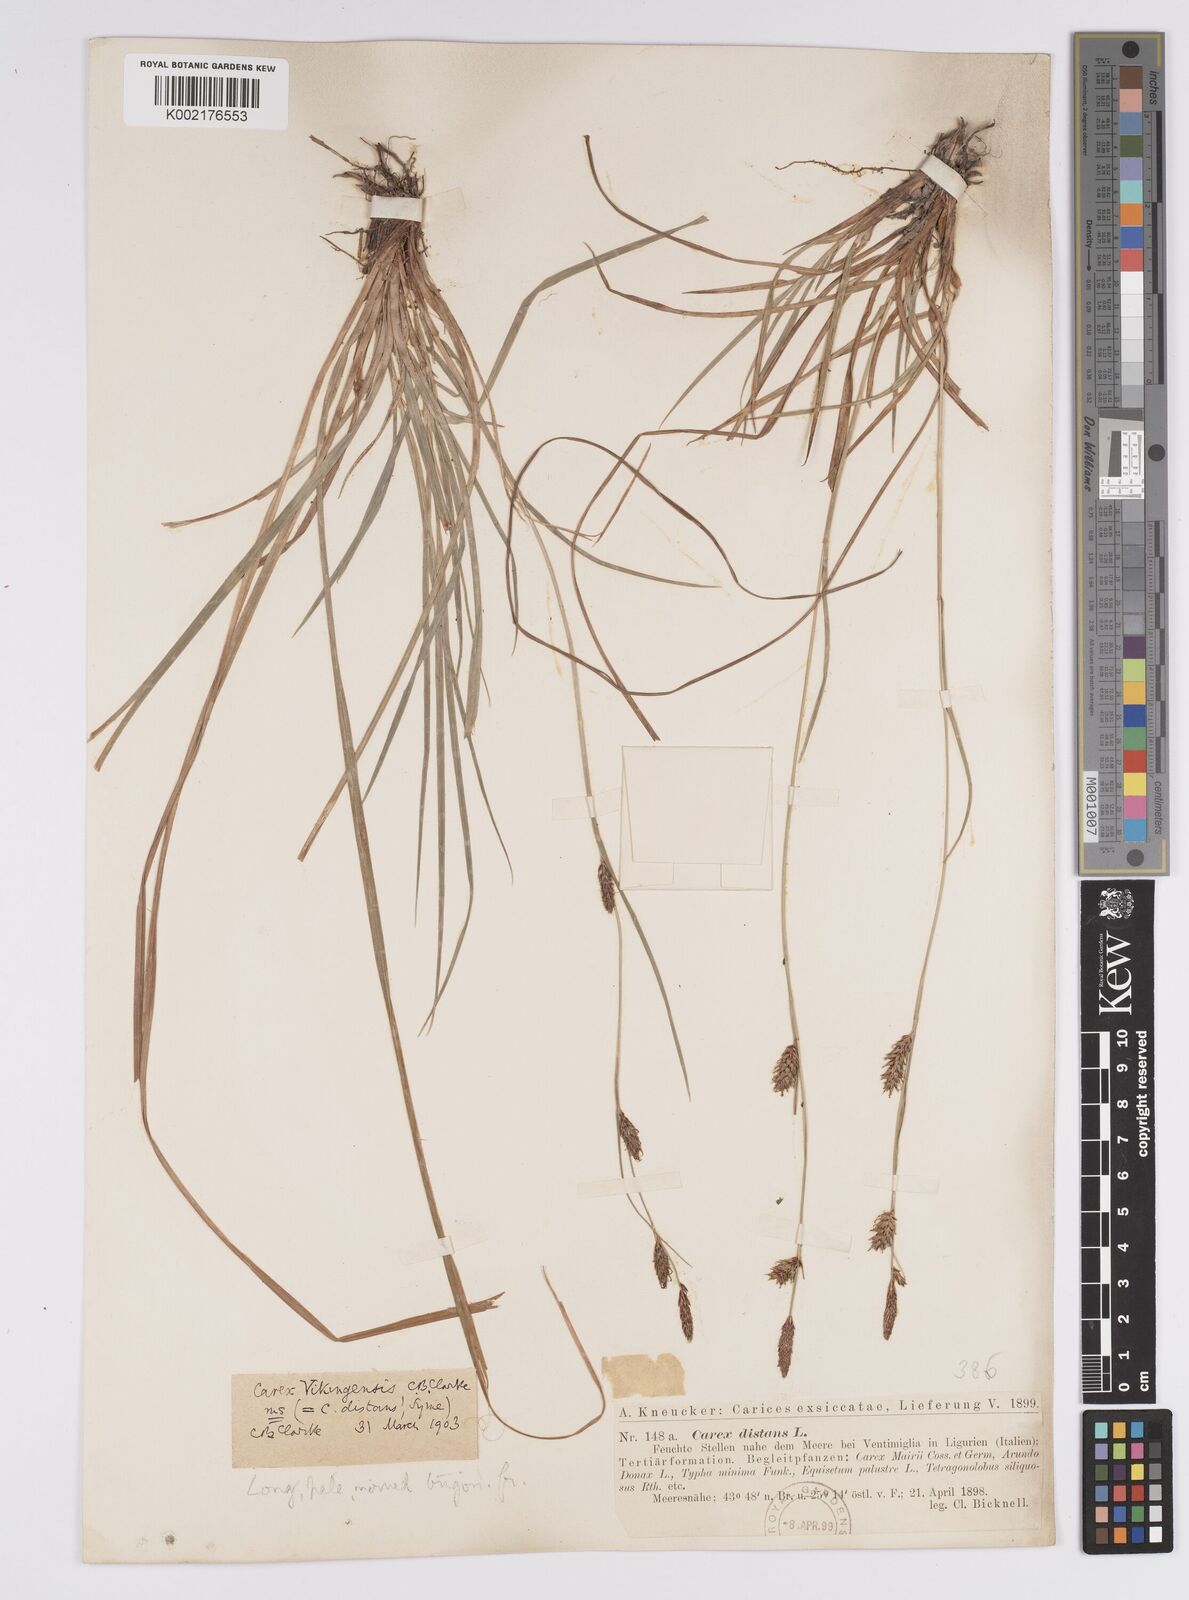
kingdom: Plantae
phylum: Tracheophyta
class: Liliopsida
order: Poales
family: Cyperaceae
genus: Carex
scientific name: Carex distans
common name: Distant sedge
